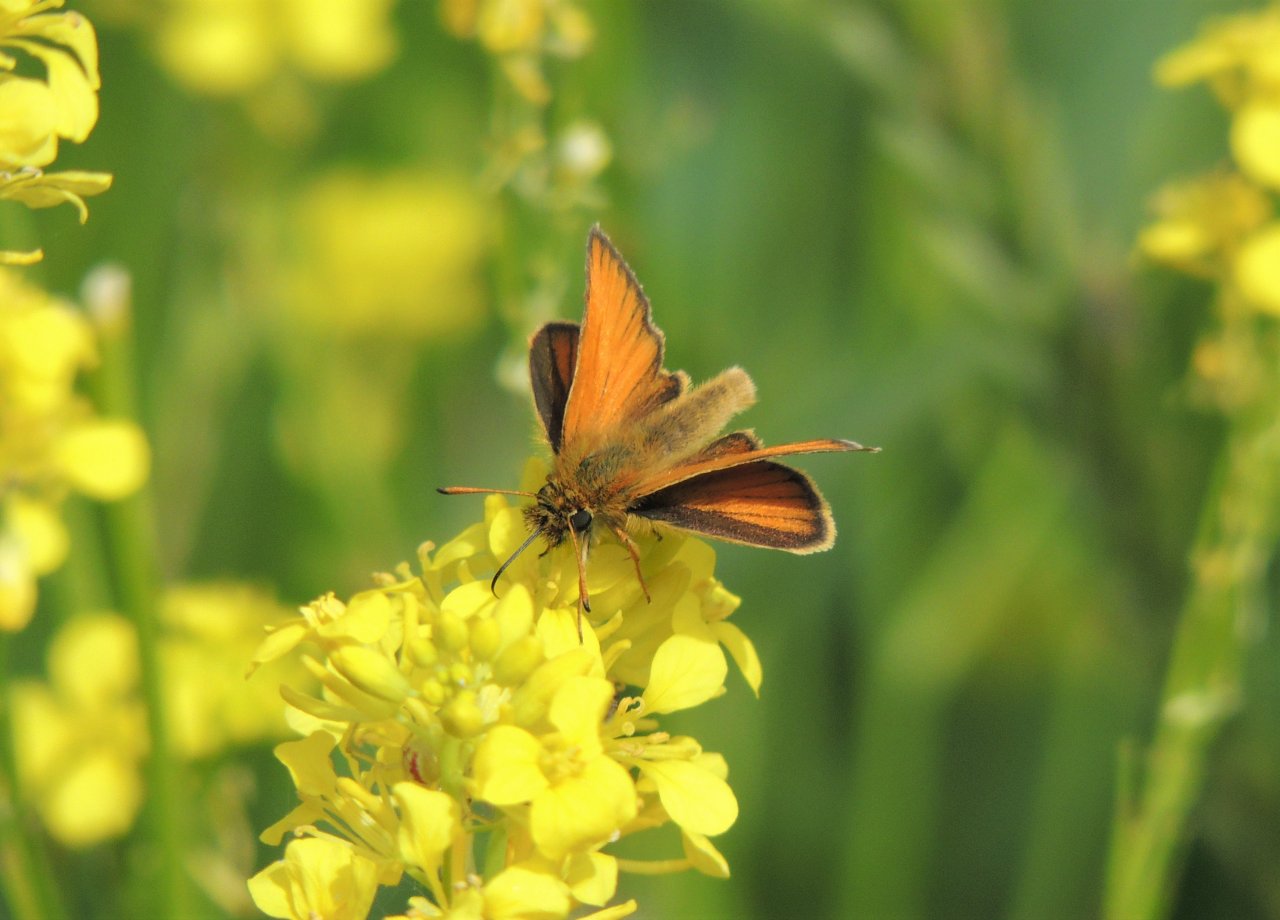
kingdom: Animalia
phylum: Arthropoda
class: Insecta
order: Lepidoptera
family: Hesperiidae
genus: Thymelicus
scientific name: Thymelicus lineola
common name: European Skipper
